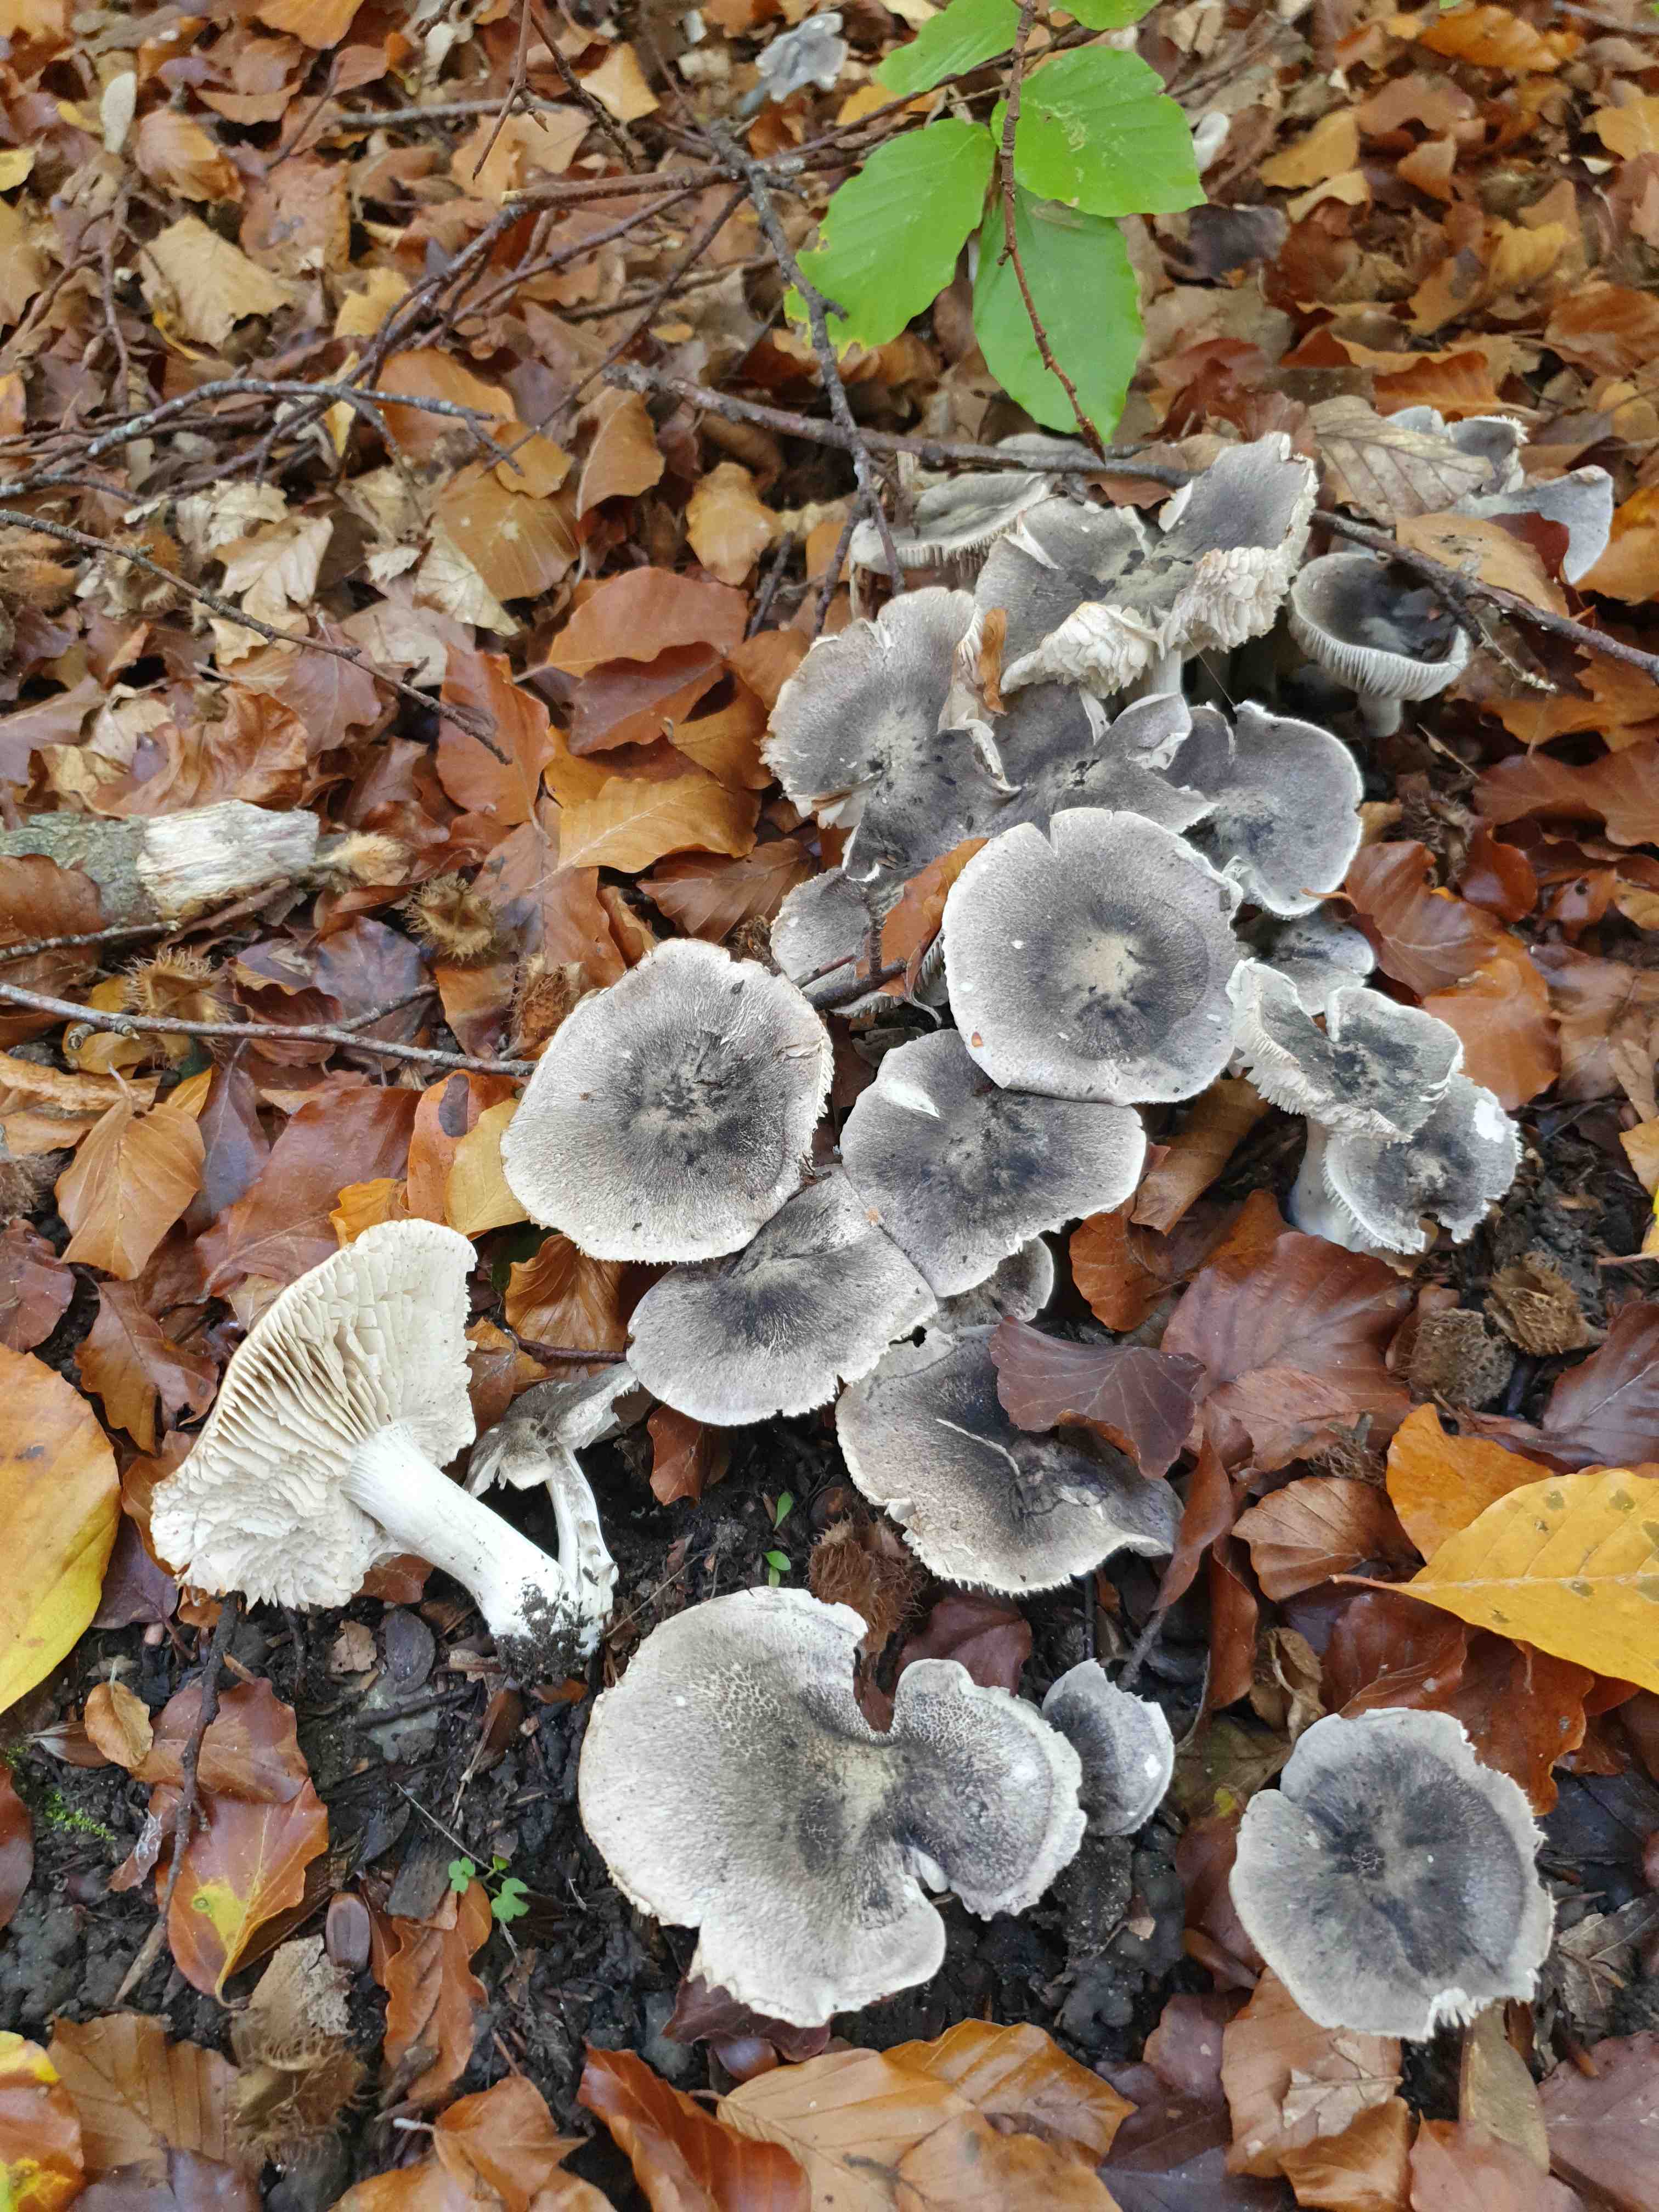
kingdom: Fungi
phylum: Basidiomycota
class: Agaricomycetes
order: Agaricales
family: Tricholomataceae
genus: Tricholoma
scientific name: Tricholoma scalpturatum
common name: gulplettet ridderhat
